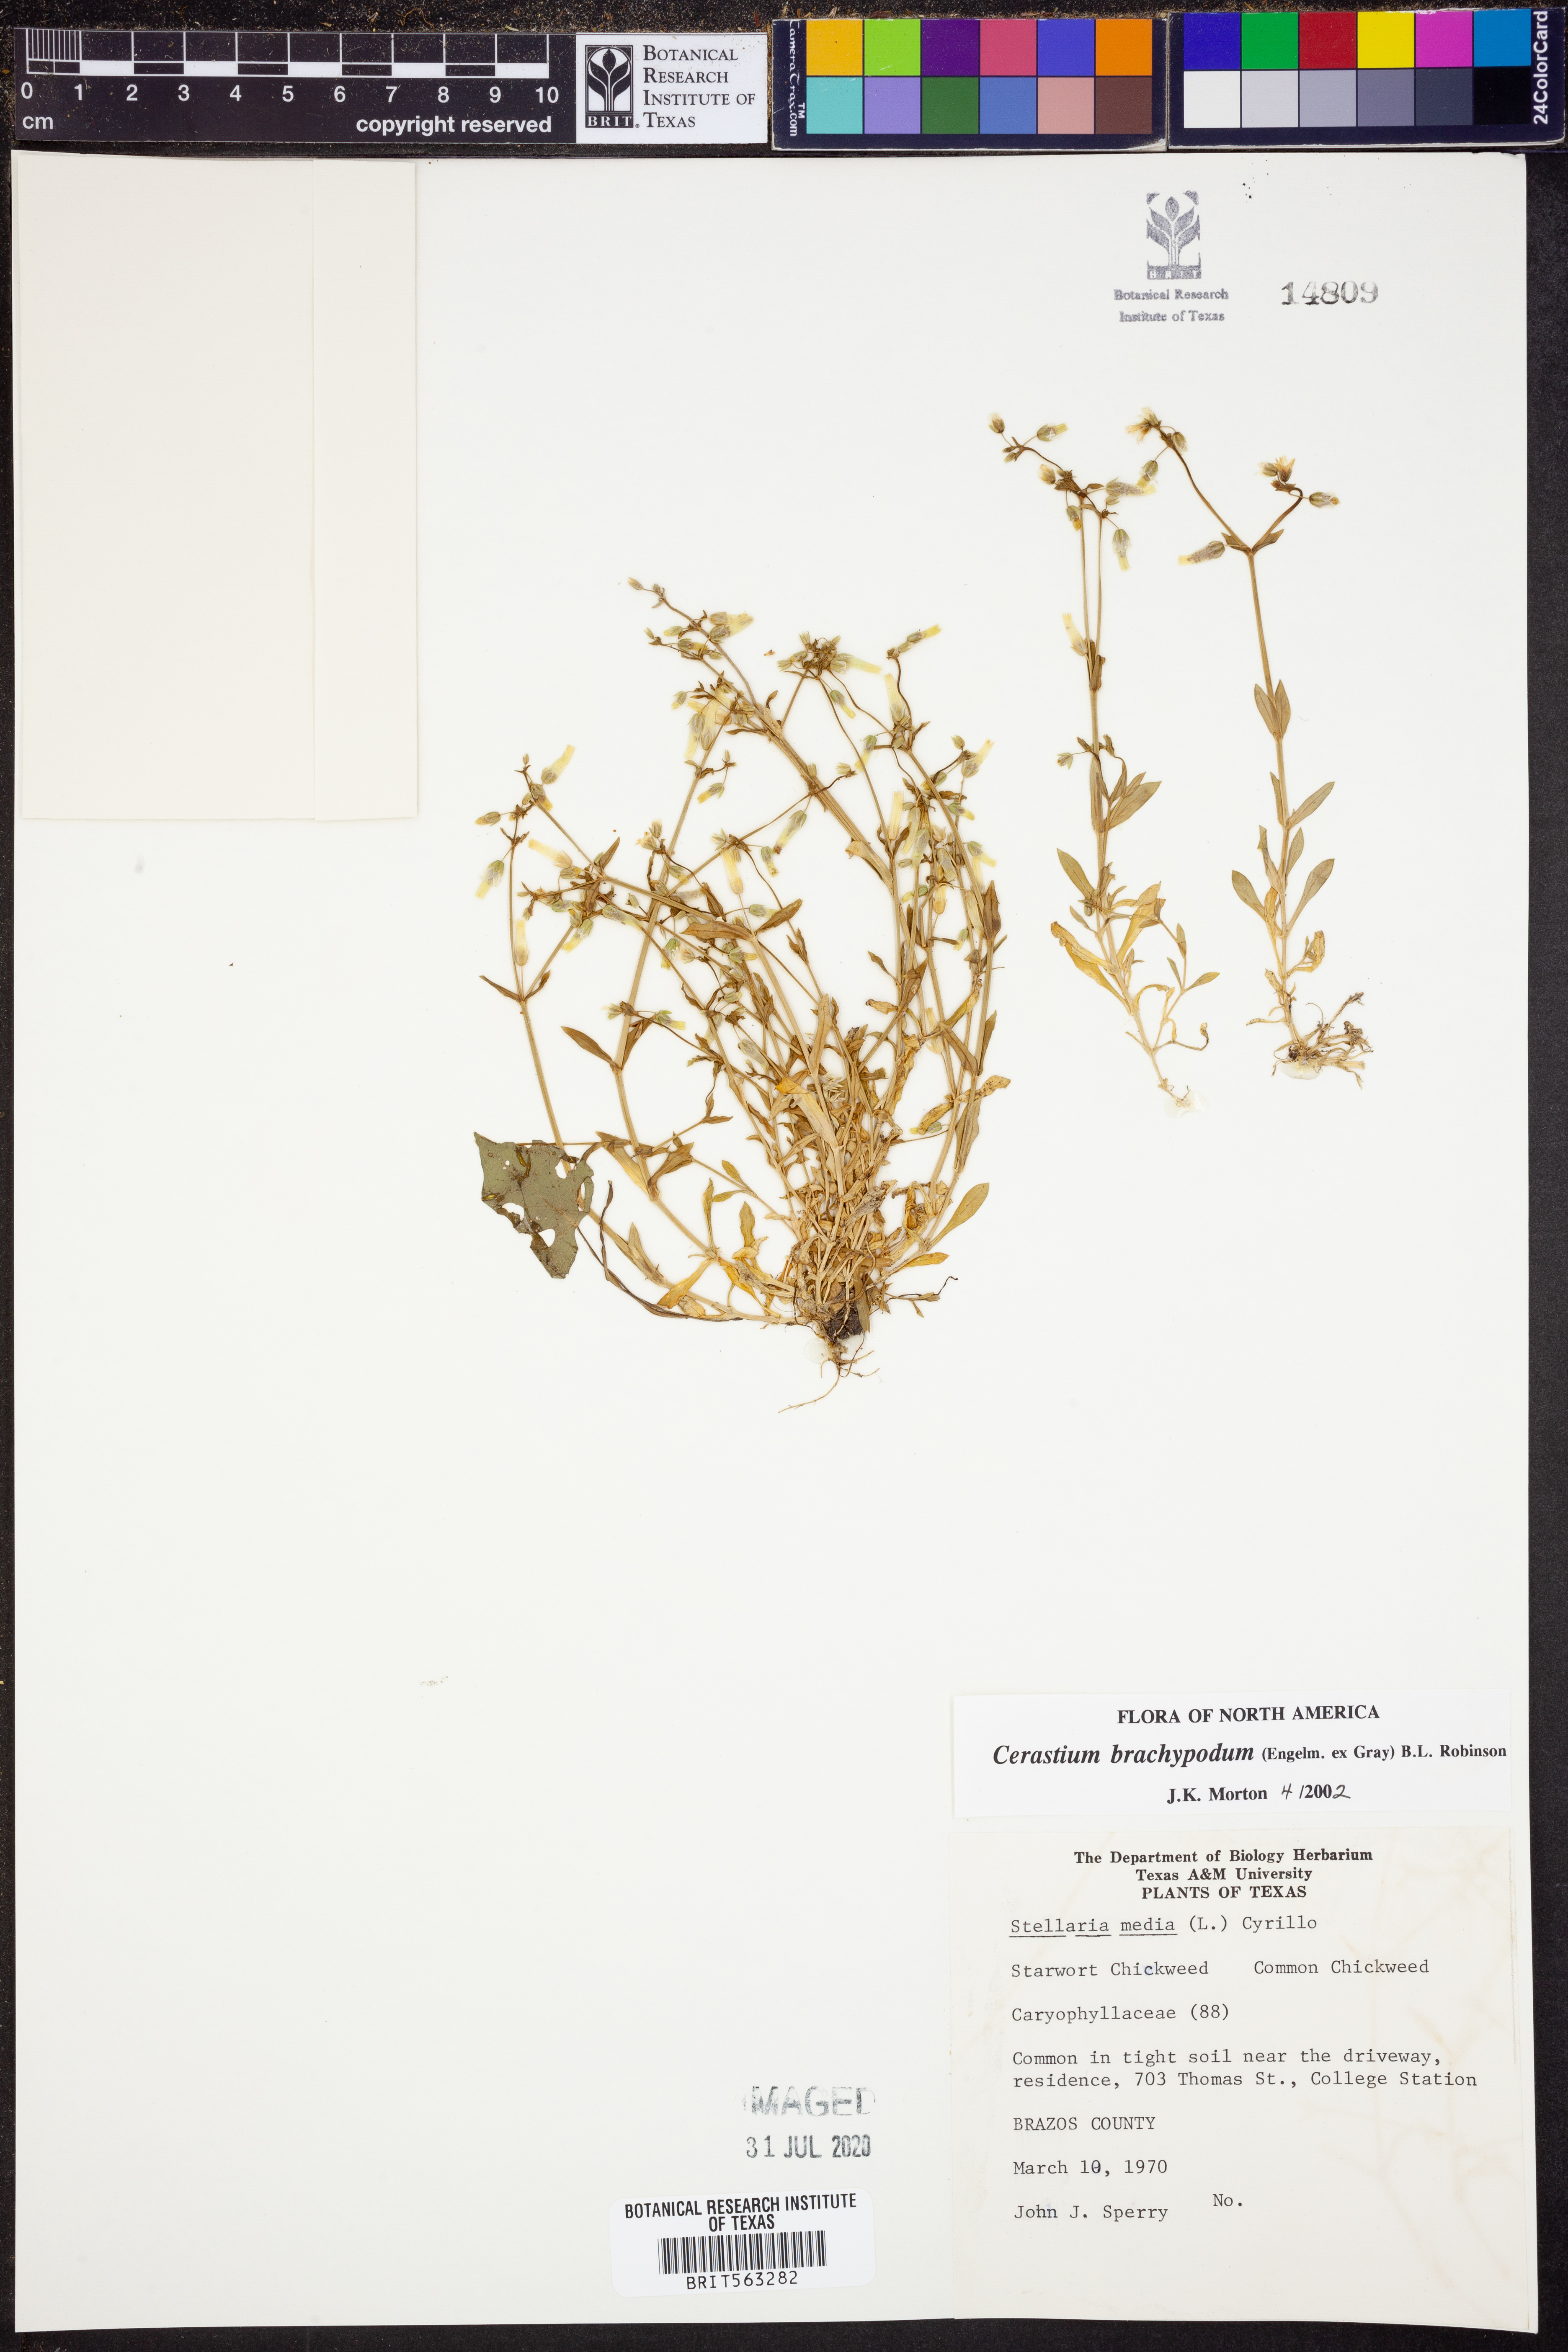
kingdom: Plantae
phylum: Tracheophyta
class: Magnoliopsida
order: Caryophyllales
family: Caryophyllaceae
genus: Cerastium
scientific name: Cerastium brachypodum
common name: Short-pedicelled nodding chickweed
